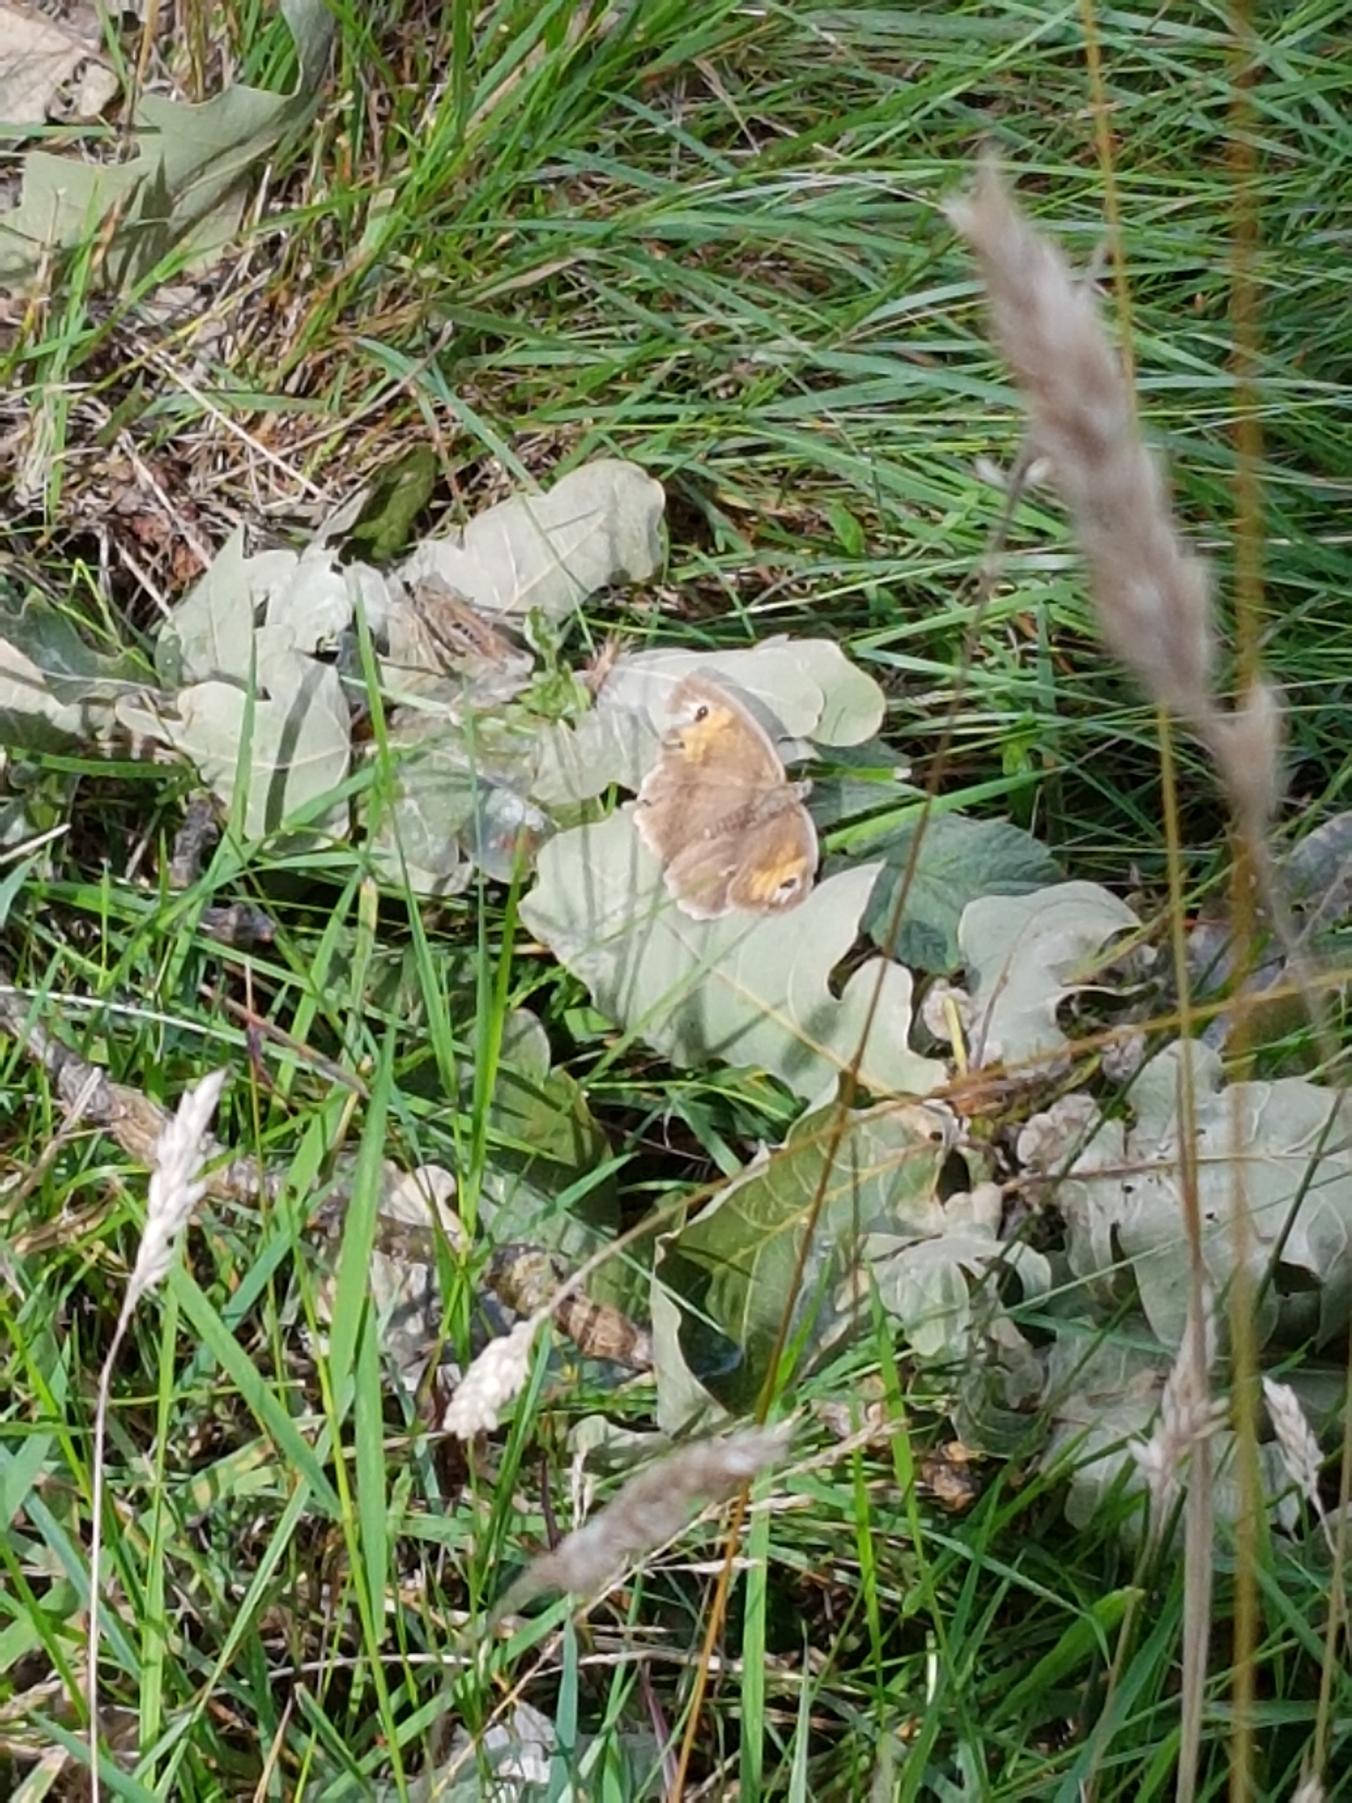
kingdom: Animalia
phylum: Arthropoda
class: Insecta
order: Lepidoptera
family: Nymphalidae
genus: Maniola
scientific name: Maniola jurtina
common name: Græsrandøje
